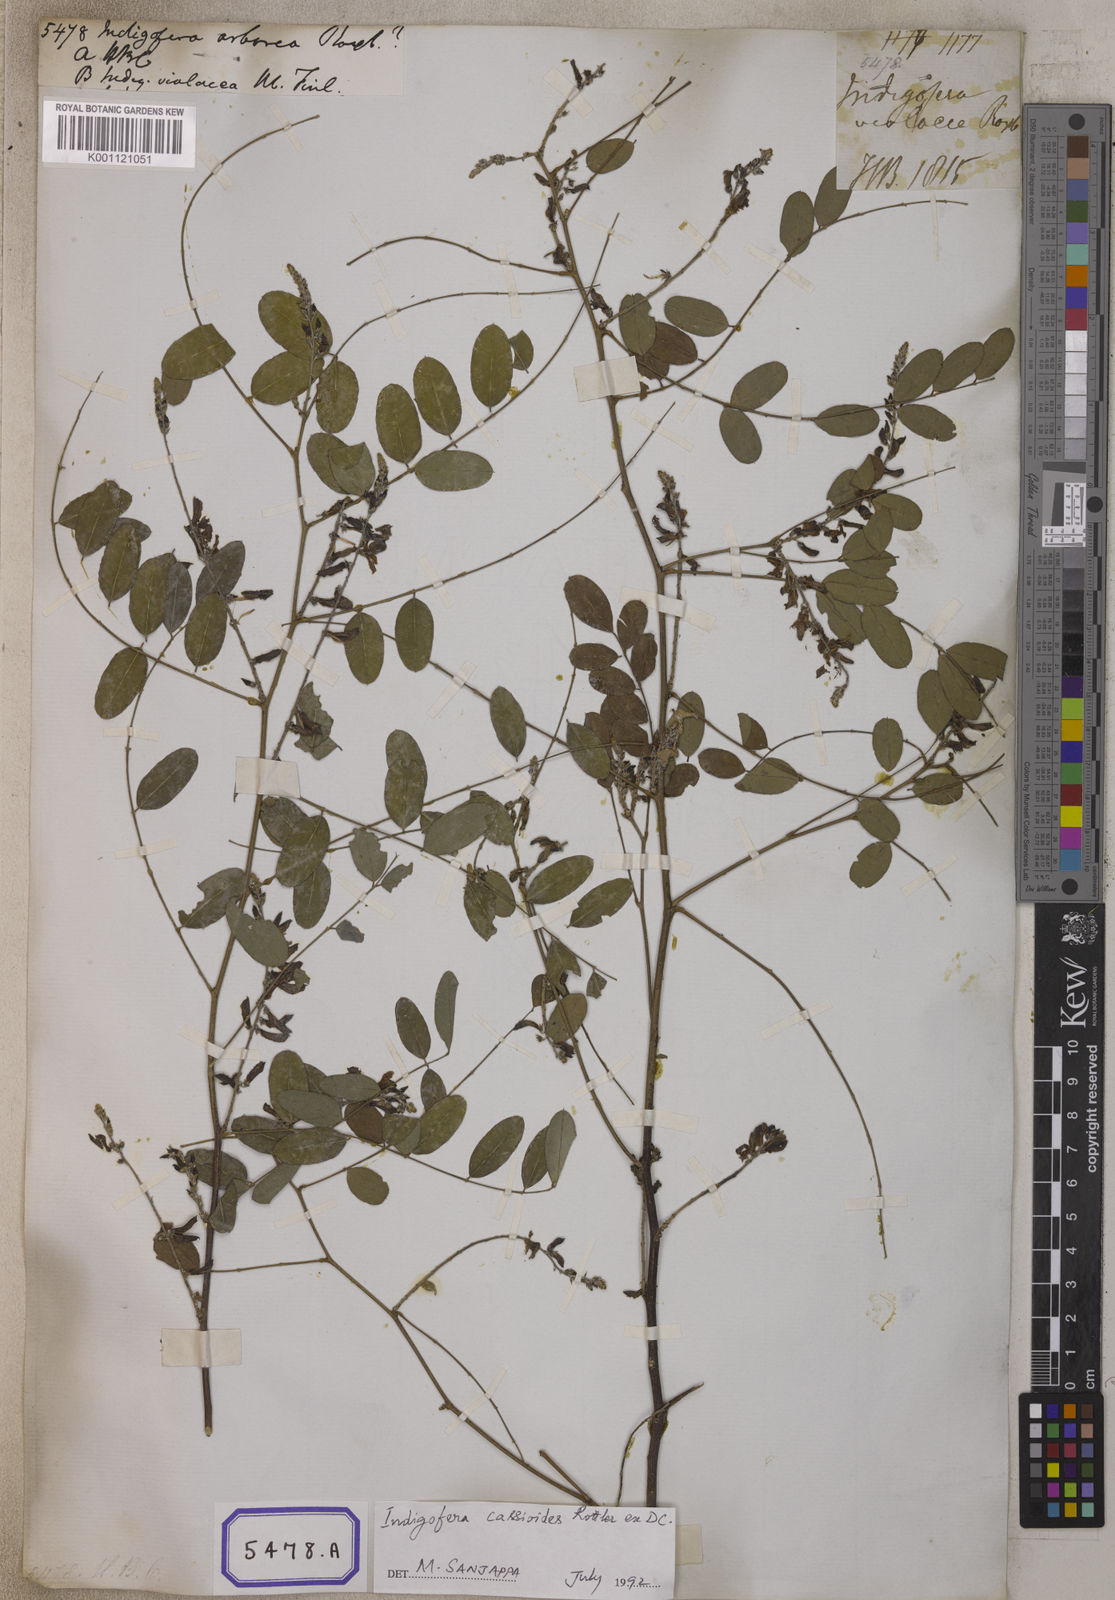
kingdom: Plantae
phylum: Tracheophyta
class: Magnoliopsida
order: Fabales
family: Fabaceae
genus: Indigofera
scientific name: Indigofera cassioides
